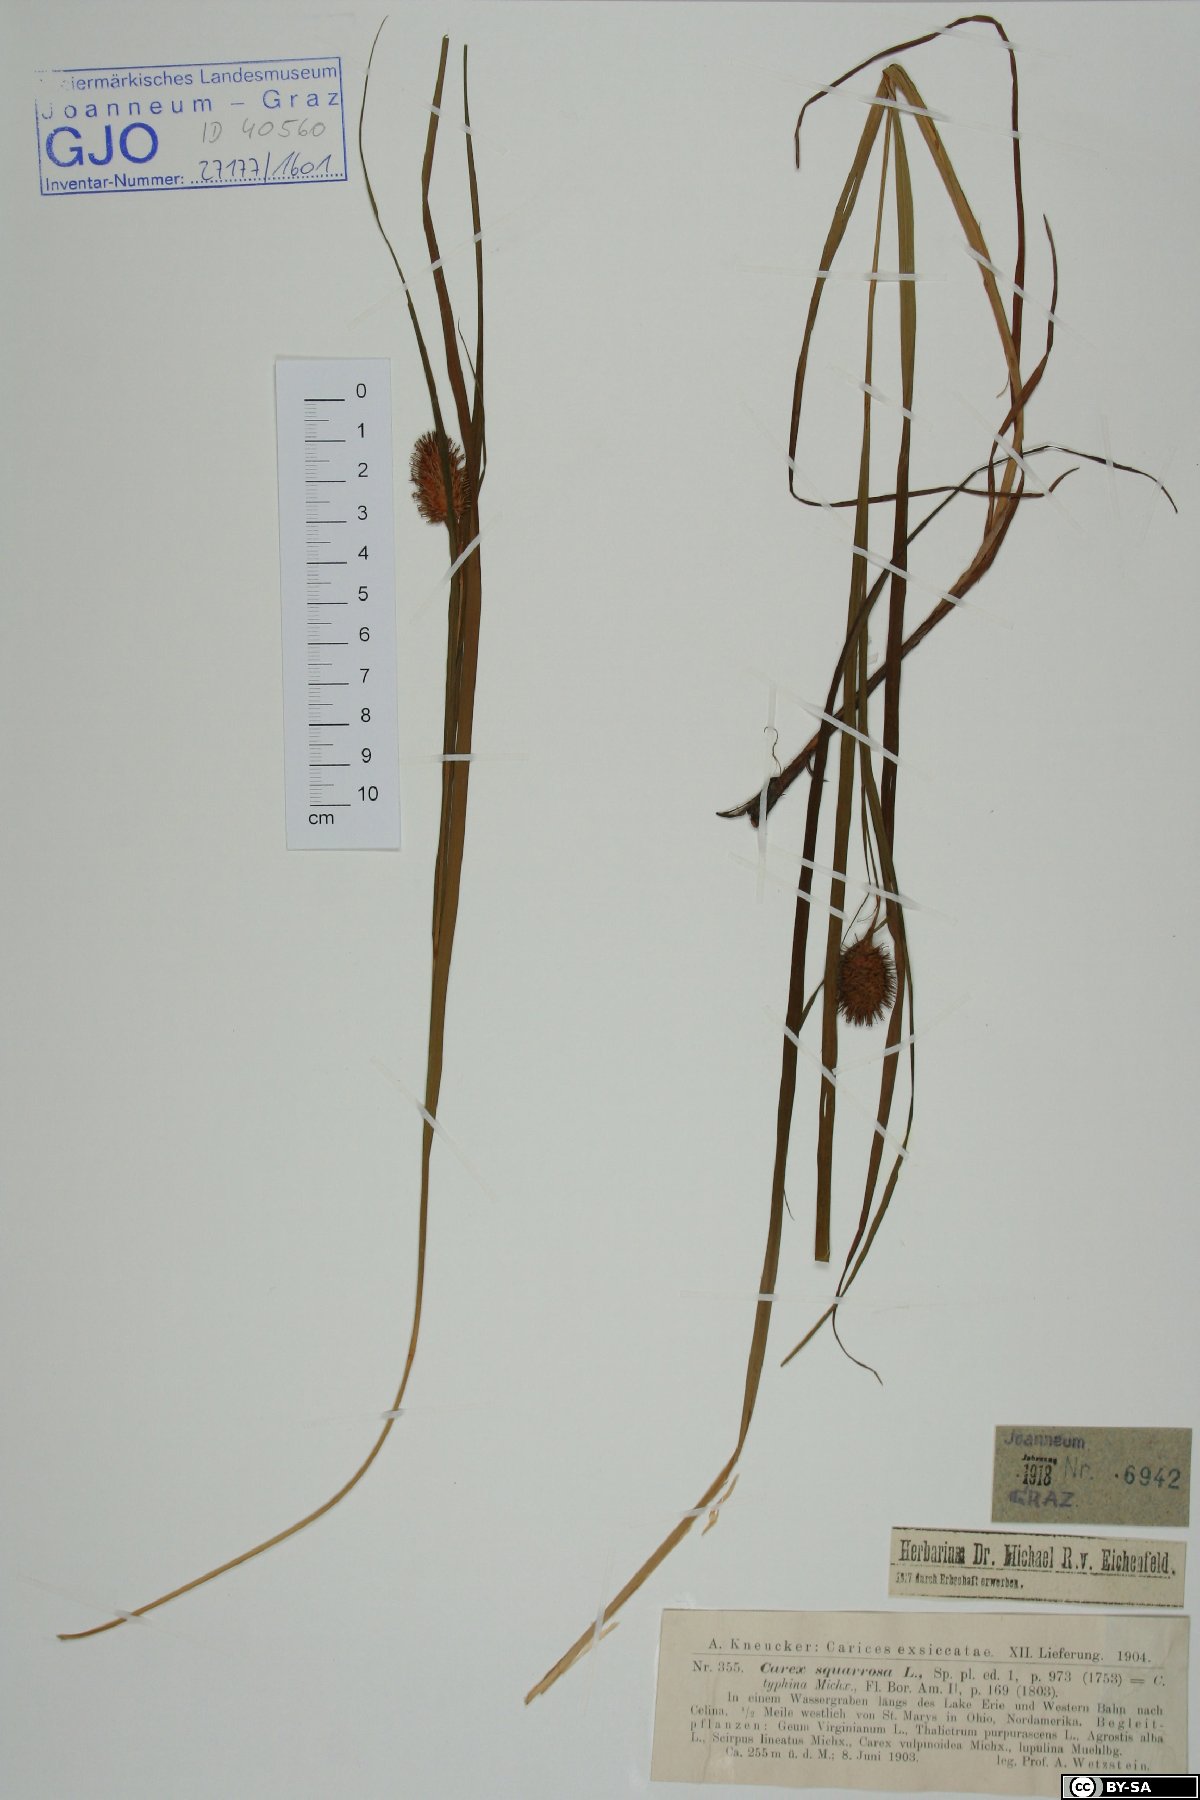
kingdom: Plantae
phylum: Tracheophyta
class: Liliopsida
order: Poales
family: Cyperaceae
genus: Carex
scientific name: Carex squarrosa
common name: Narrow-leaved cattail sedge
